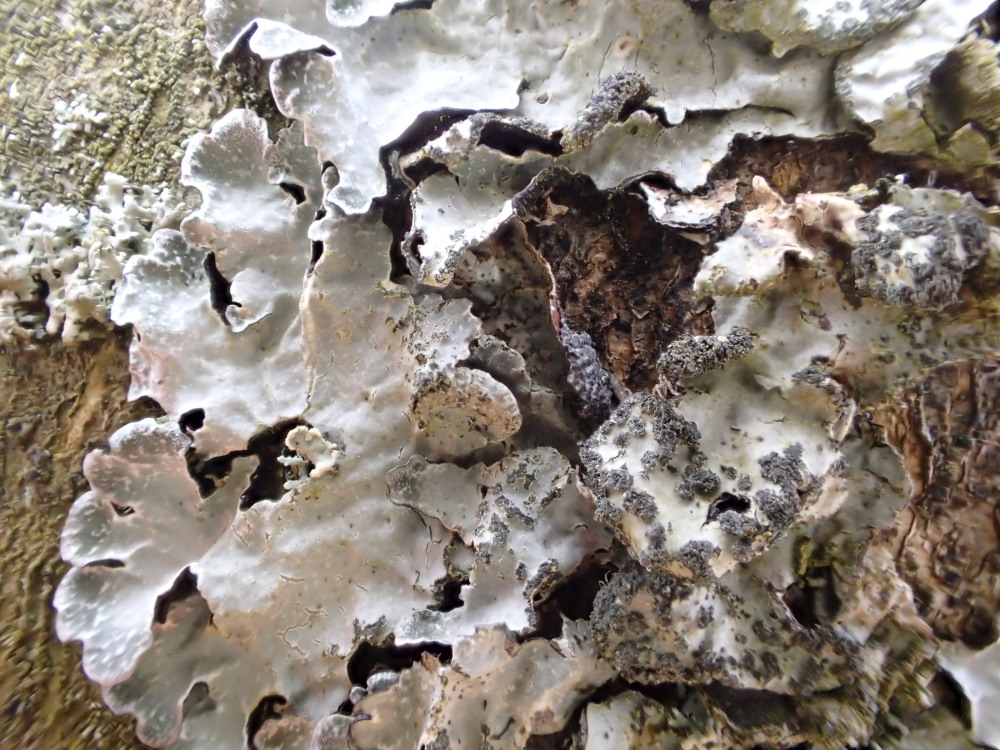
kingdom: Fungi
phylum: Ascomycota
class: Lecanoromycetes
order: Lecanorales
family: Parmeliaceae
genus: Parmelia
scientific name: Parmelia sulcata
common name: rynket skållav
